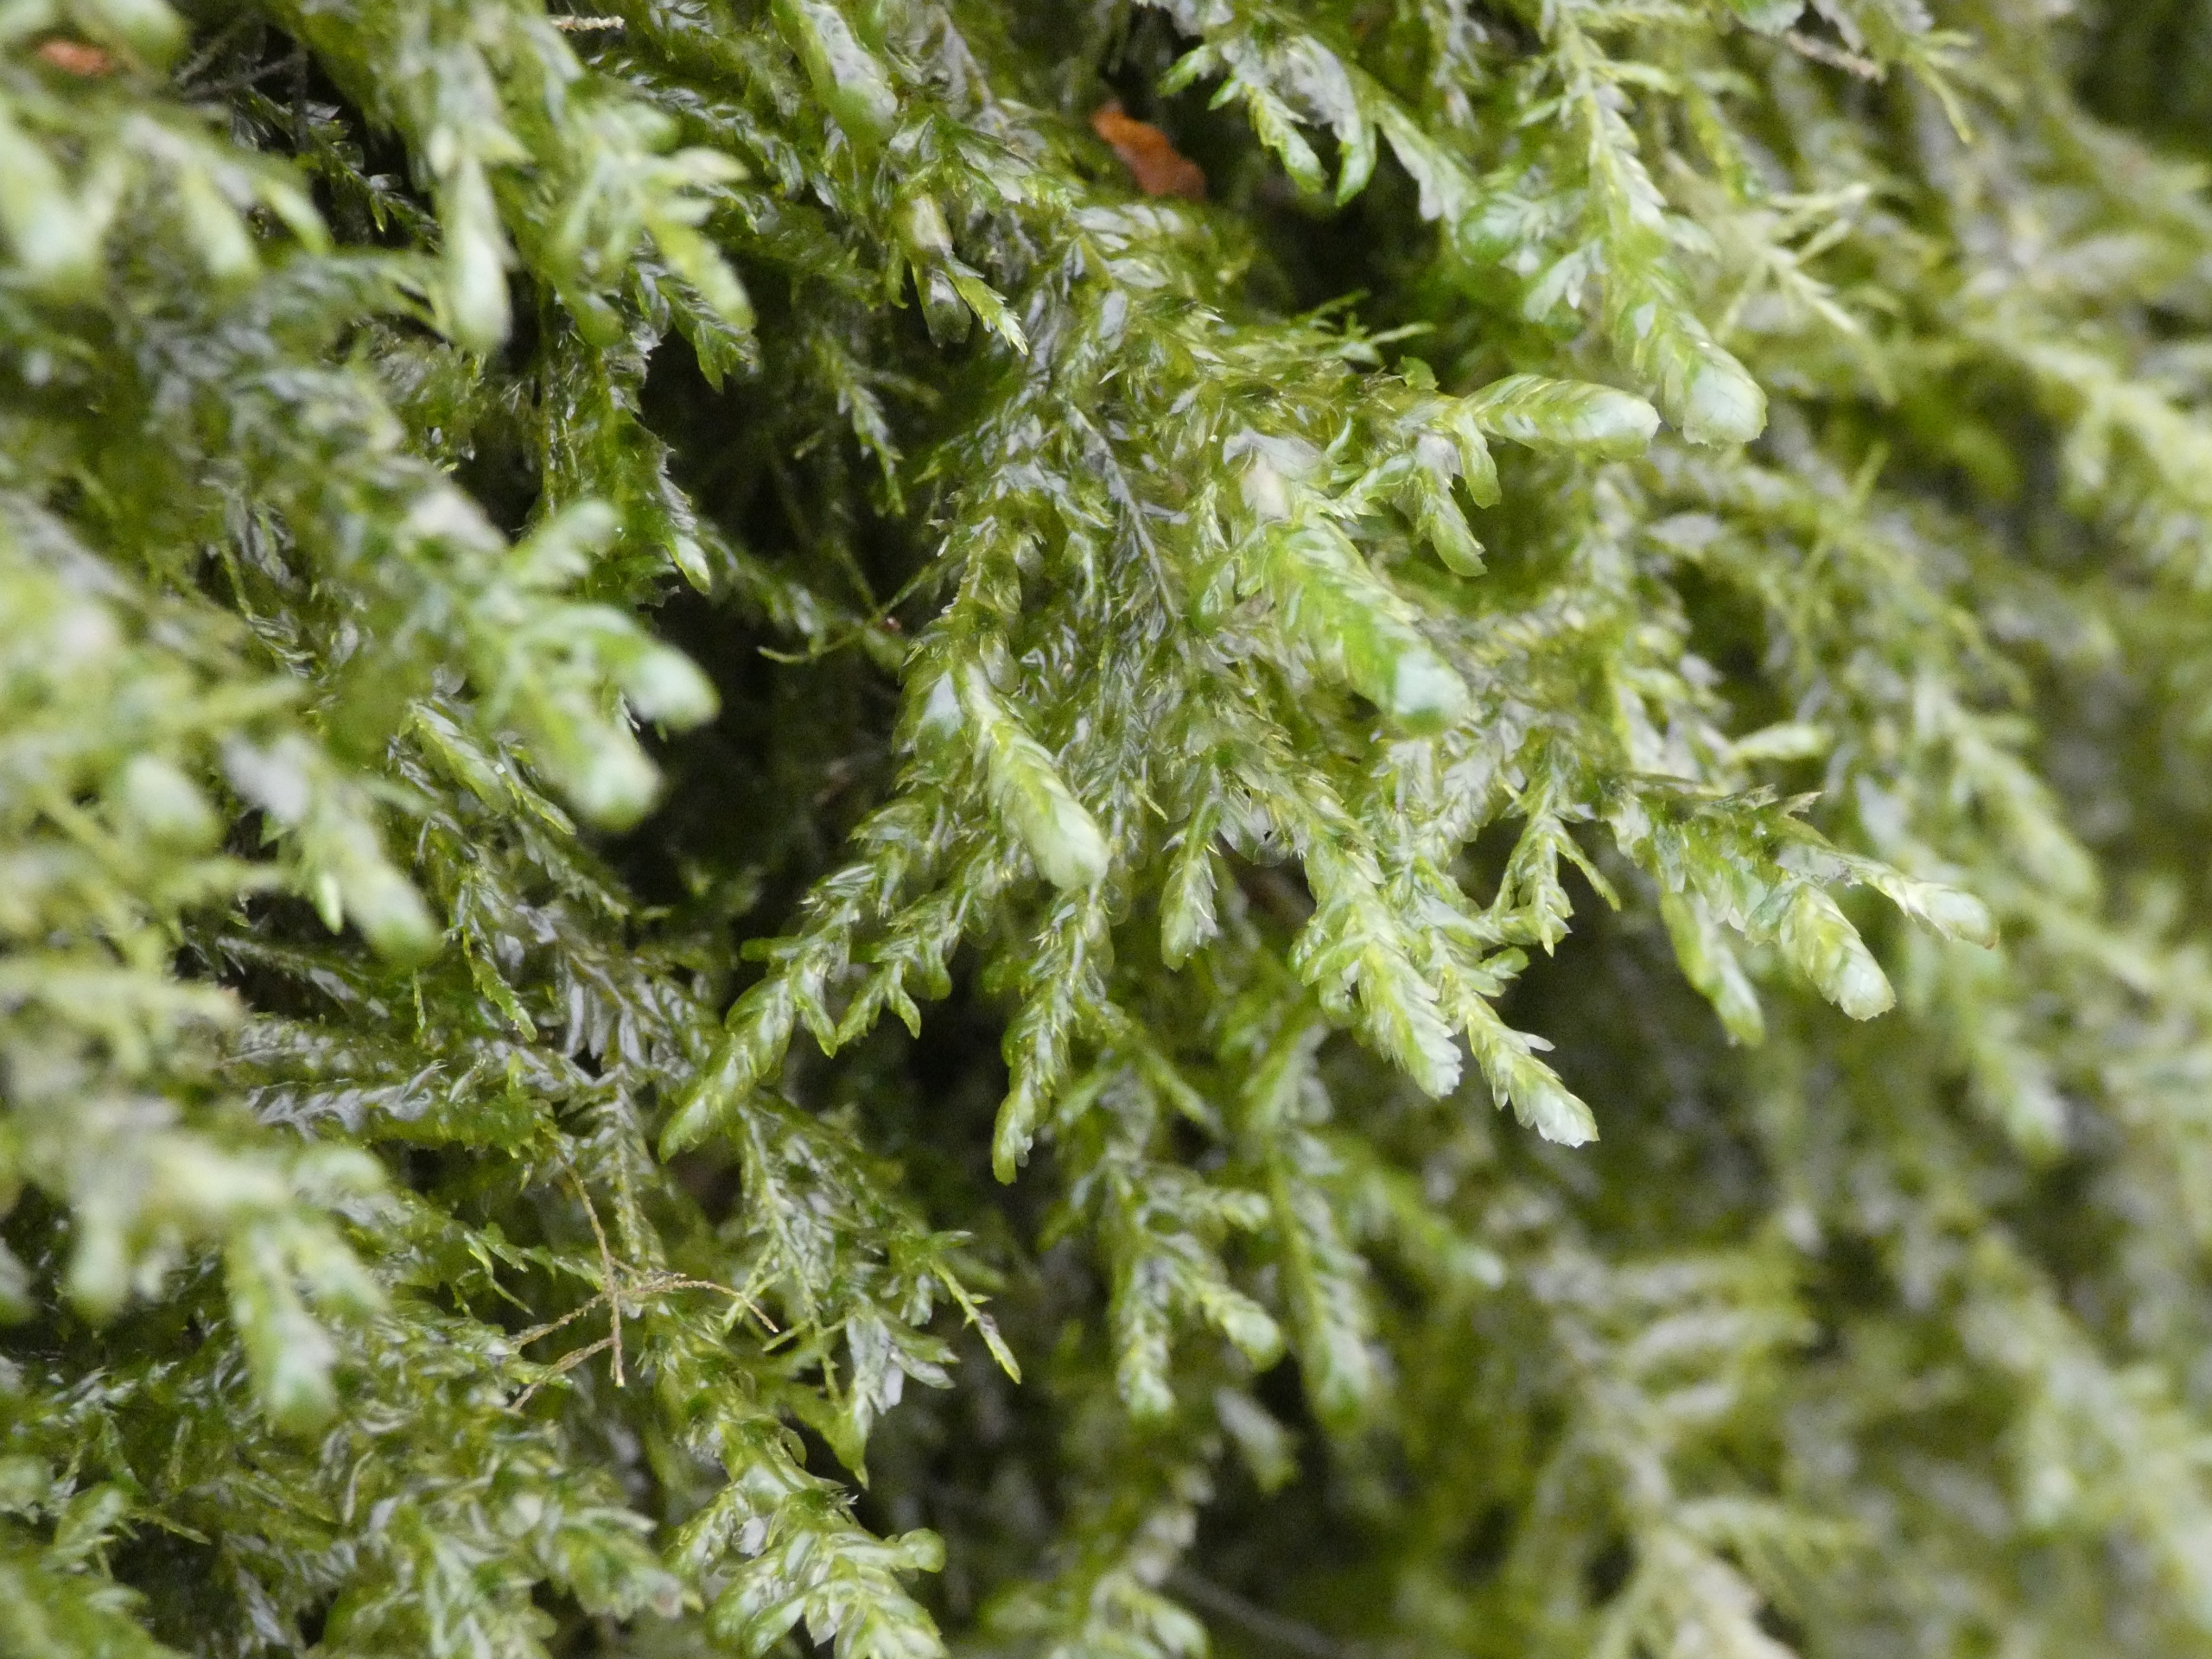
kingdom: Plantae
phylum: Bryophyta
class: Bryopsida
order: Hypnales
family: Neckeraceae
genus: Alleniella
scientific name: Alleniella complanata
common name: Almindelig fladmos
